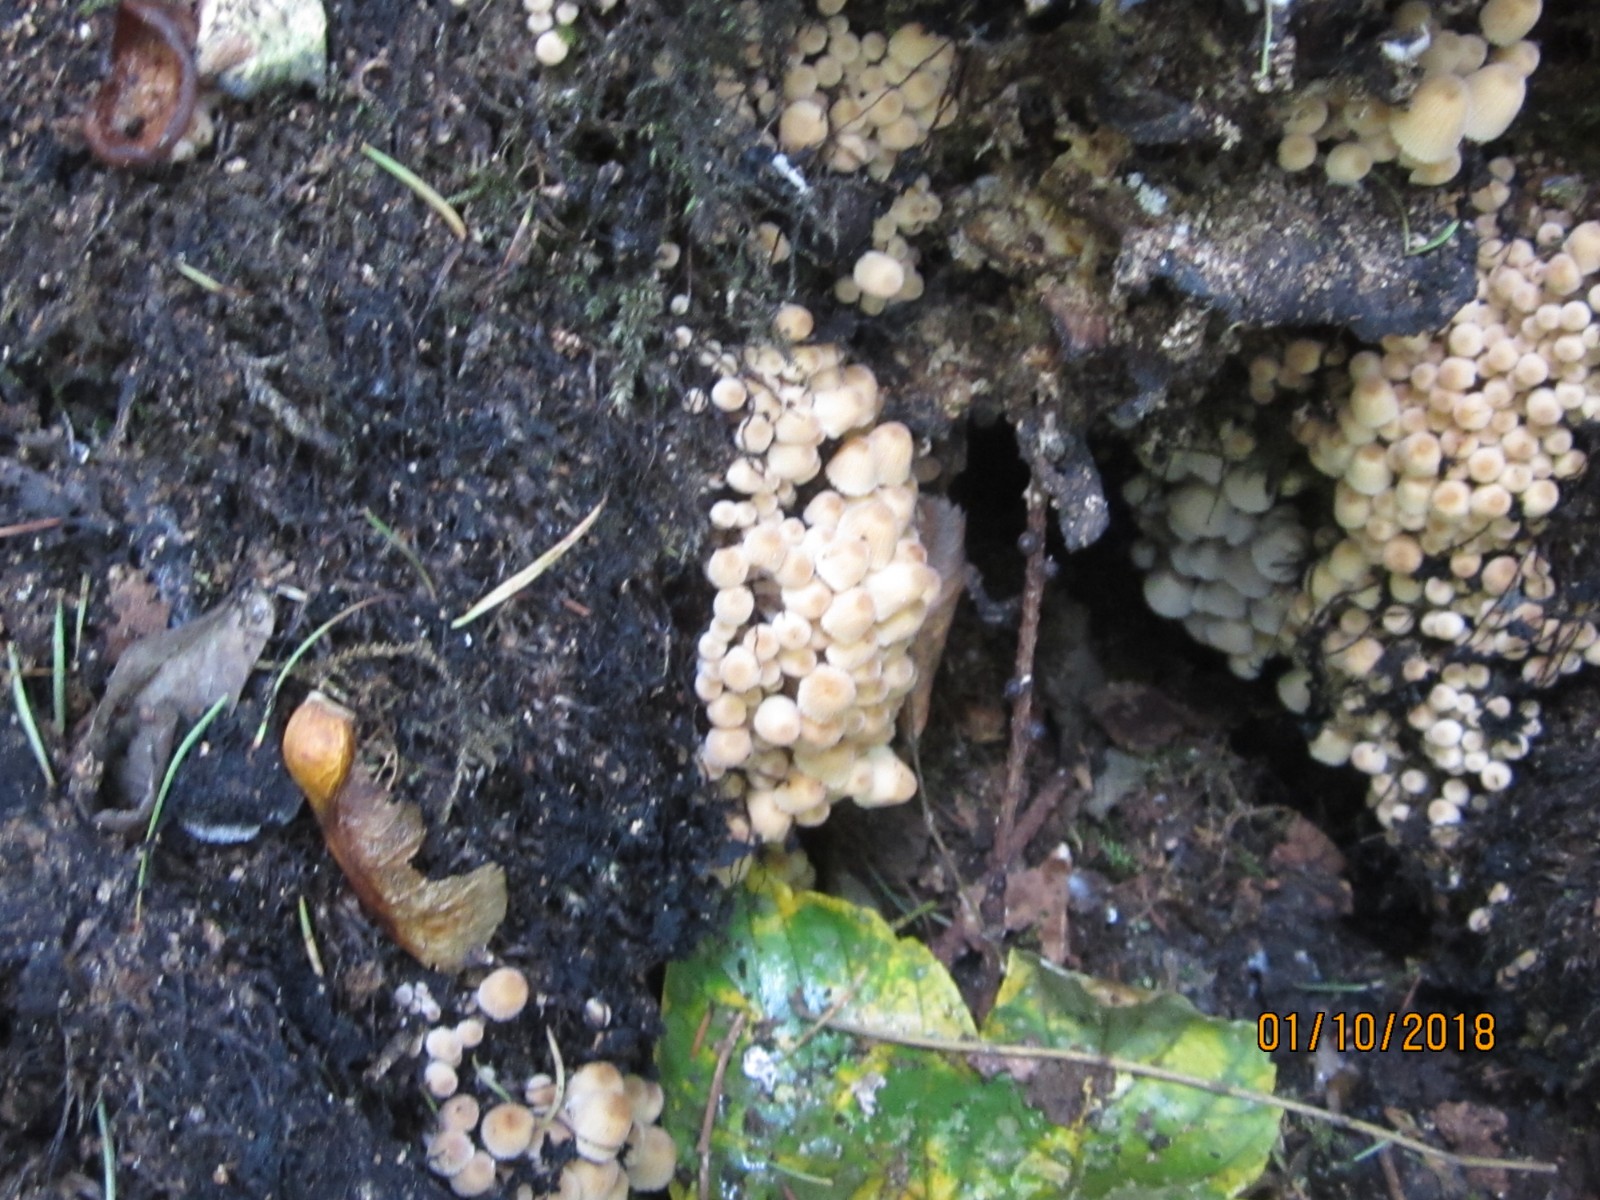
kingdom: Fungi
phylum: Basidiomycota
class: Agaricomycetes
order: Agaricales
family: Psathyrellaceae
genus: Coprinellus
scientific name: Coprinellus disseminatus
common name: bredsået blækhat
